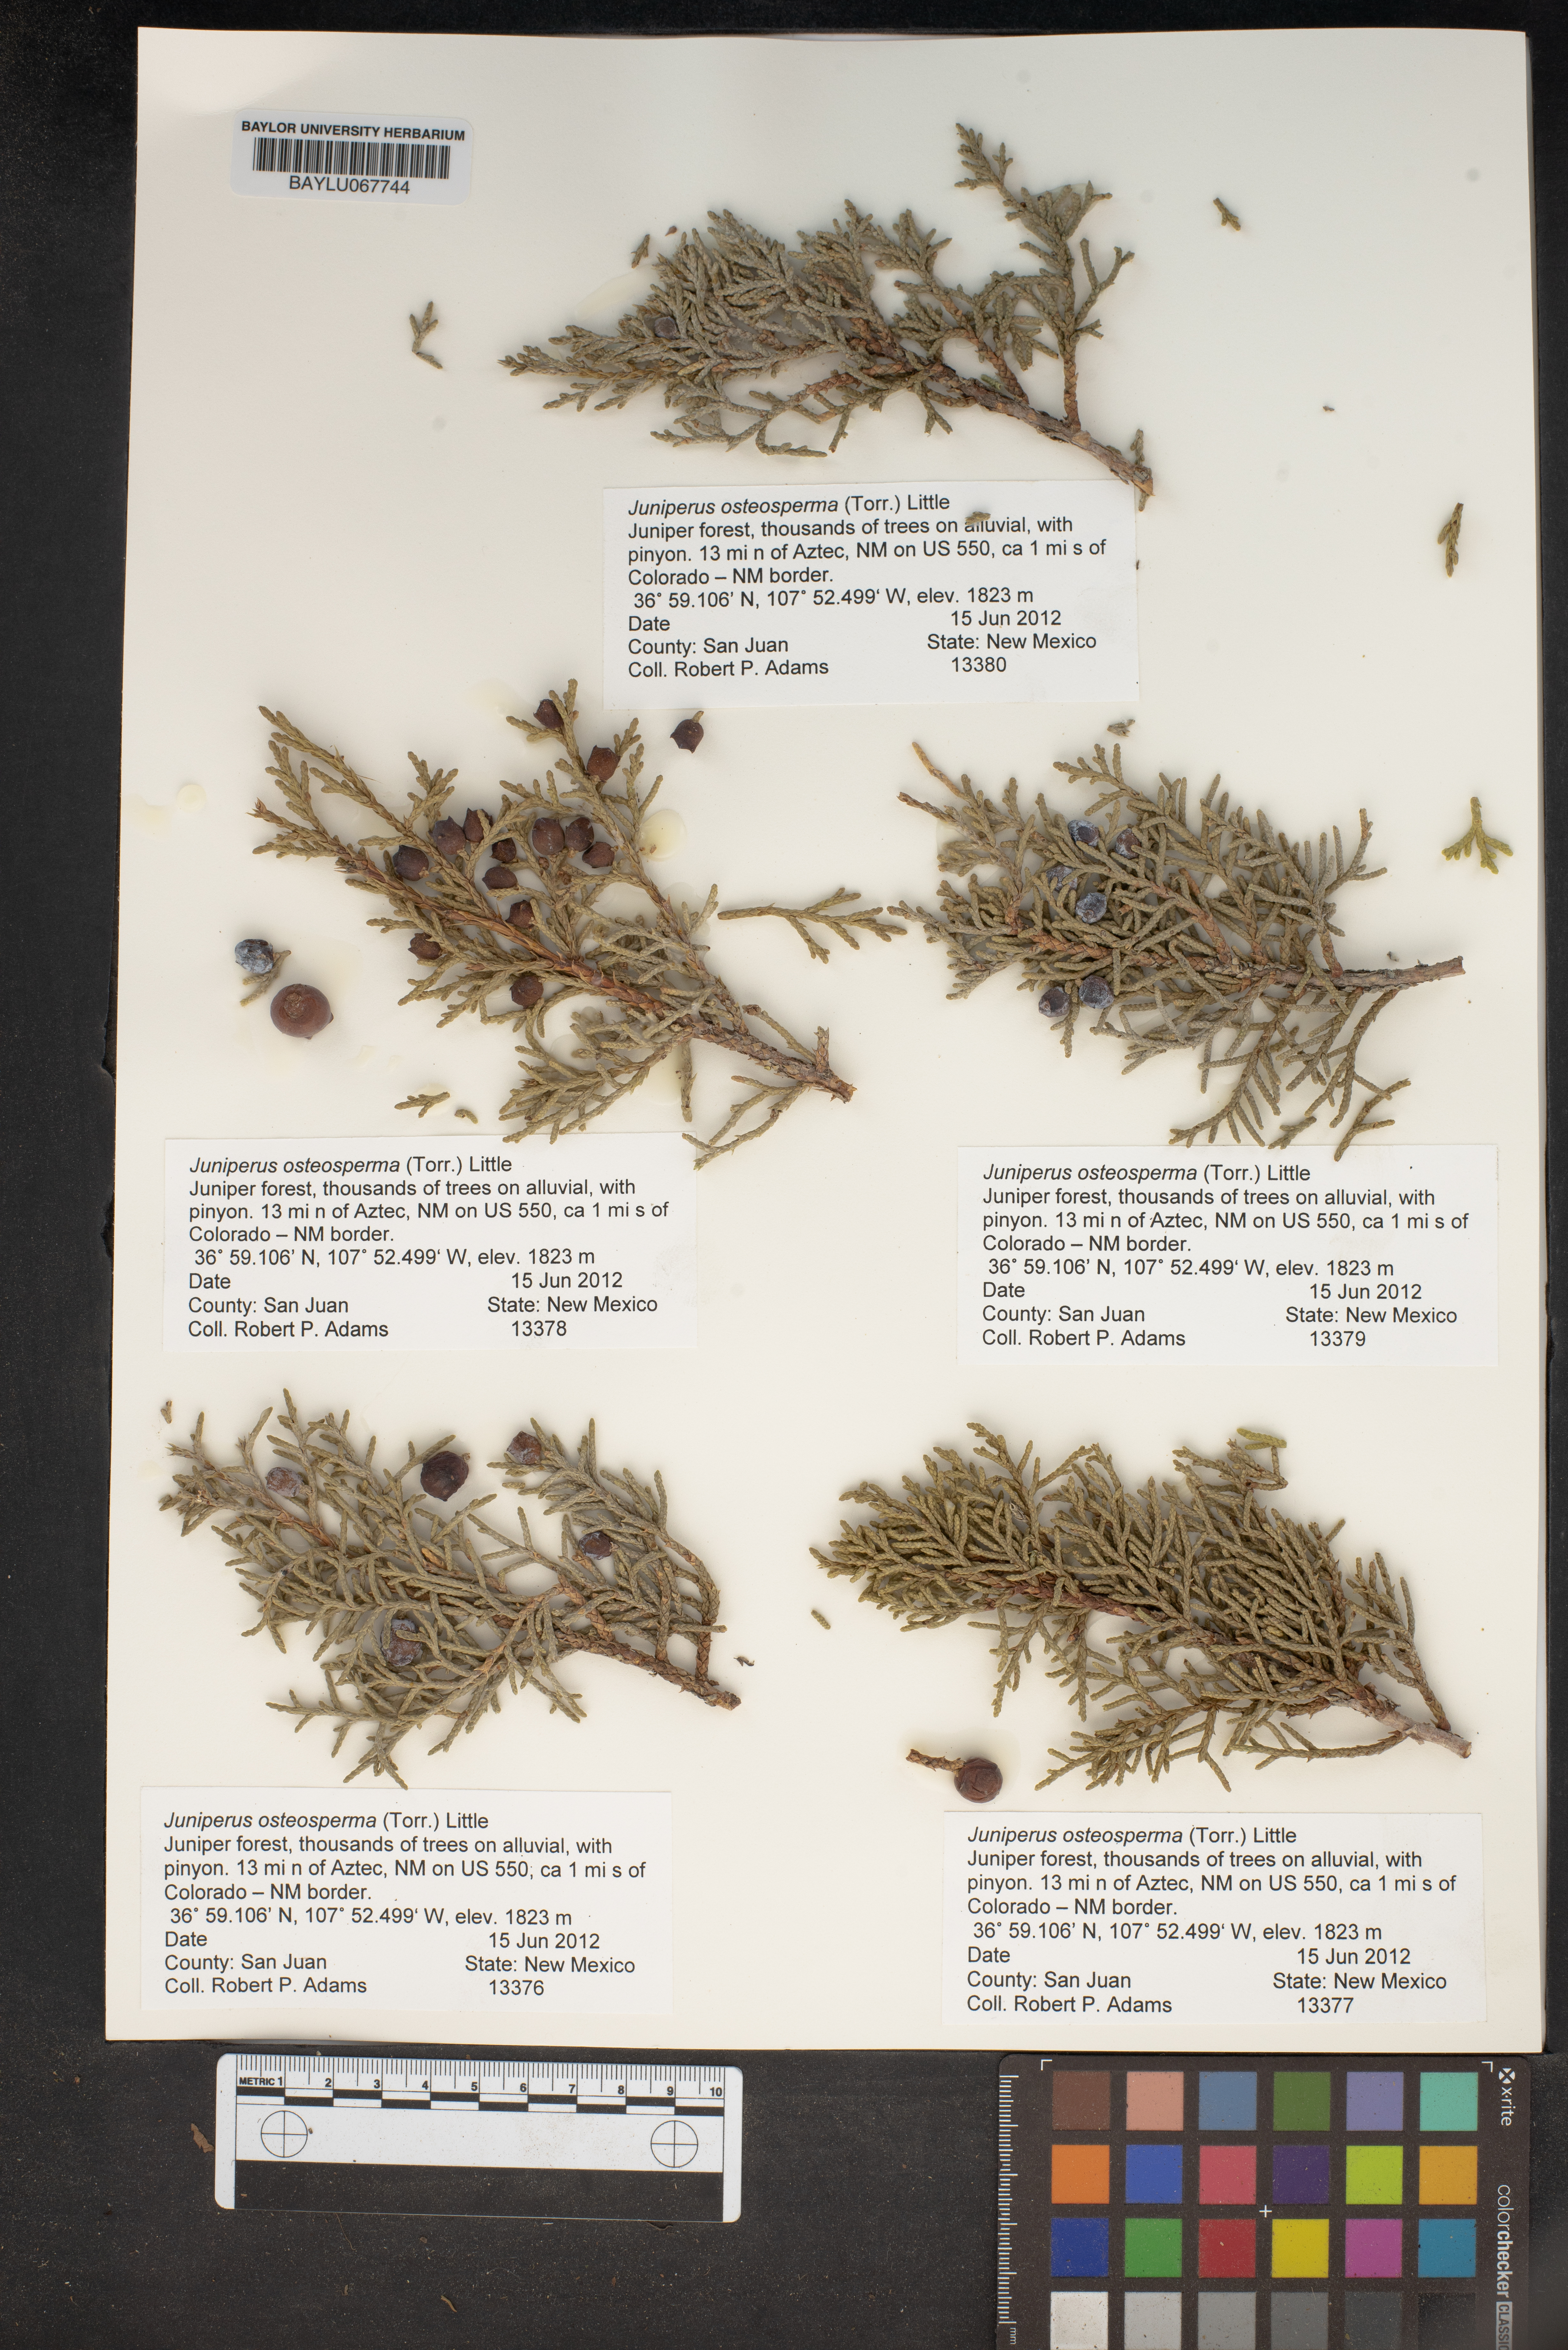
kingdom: Plantae
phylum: Tracheophyta
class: Pinopsida
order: Pinales
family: Cupressaceae
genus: Juniperus
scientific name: Juniperus osteosperma
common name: Utah juniper
